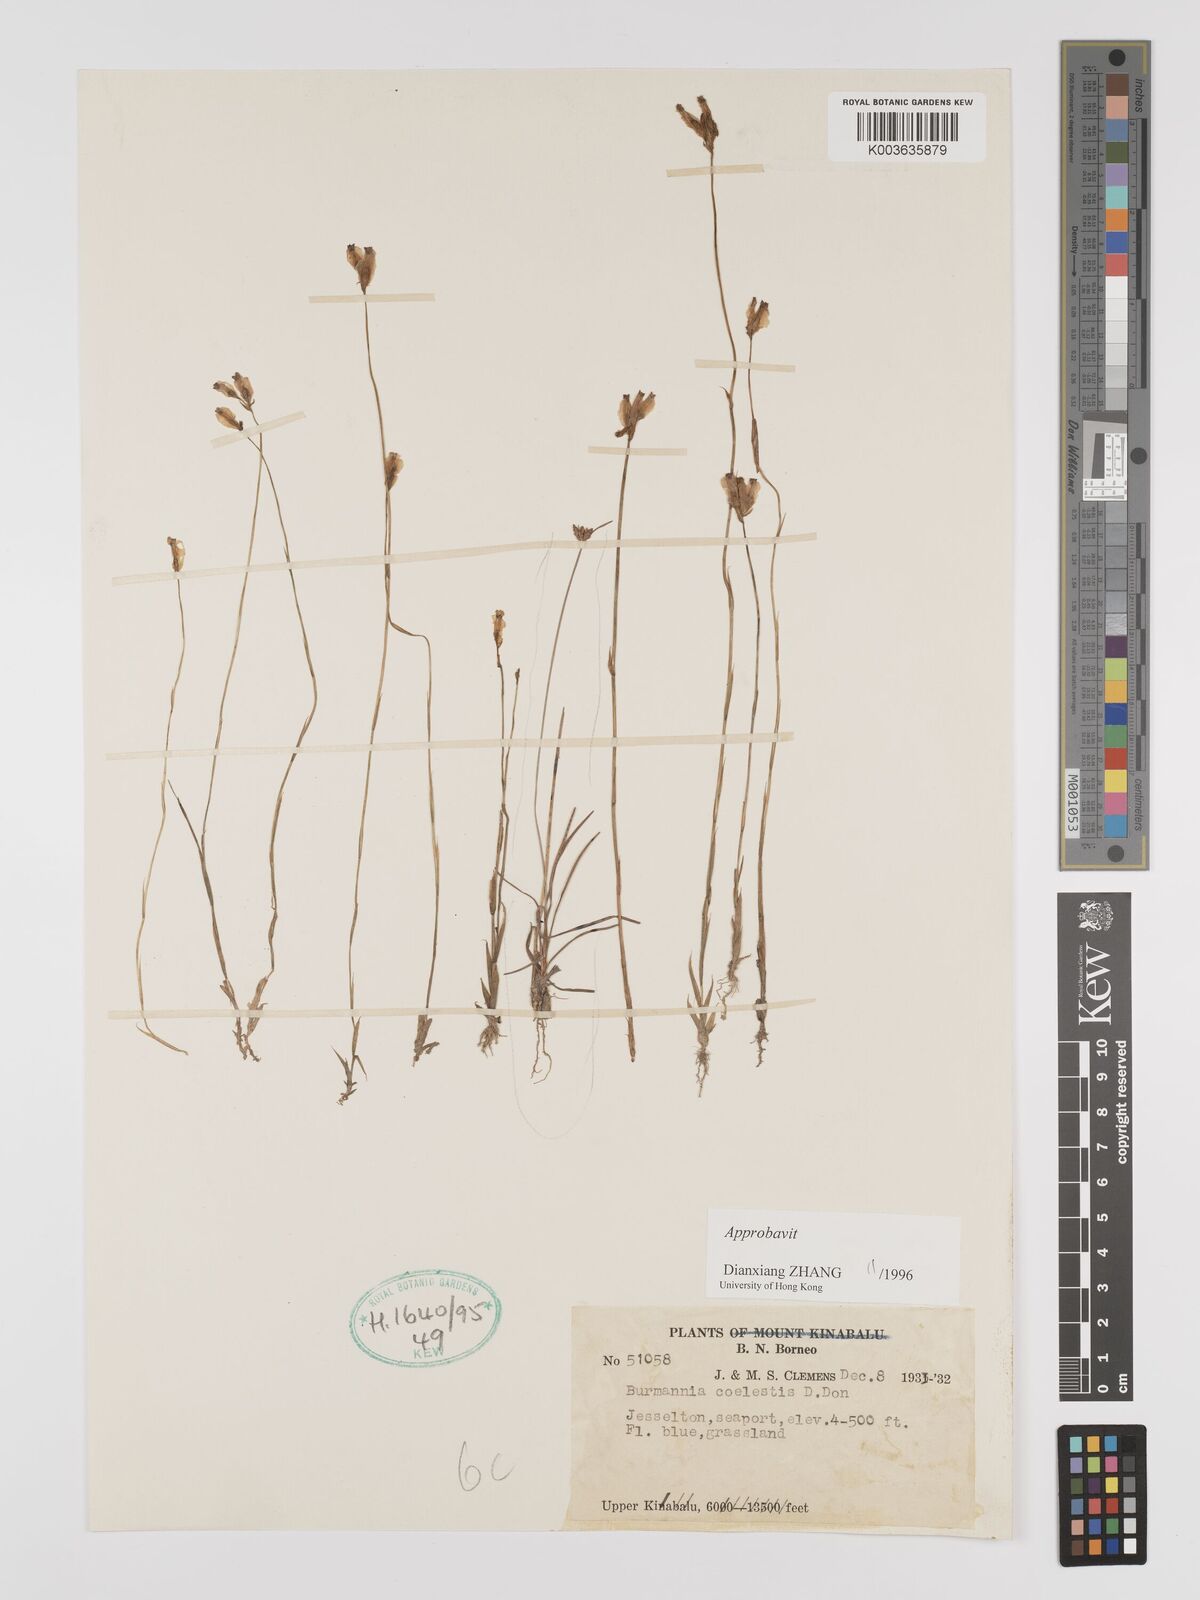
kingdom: Plantae
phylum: Tracheophyta
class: Liliopsida
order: Dioscoreales
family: Burmanniaceae
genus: Burmannia
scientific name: Burmannia coelestis
